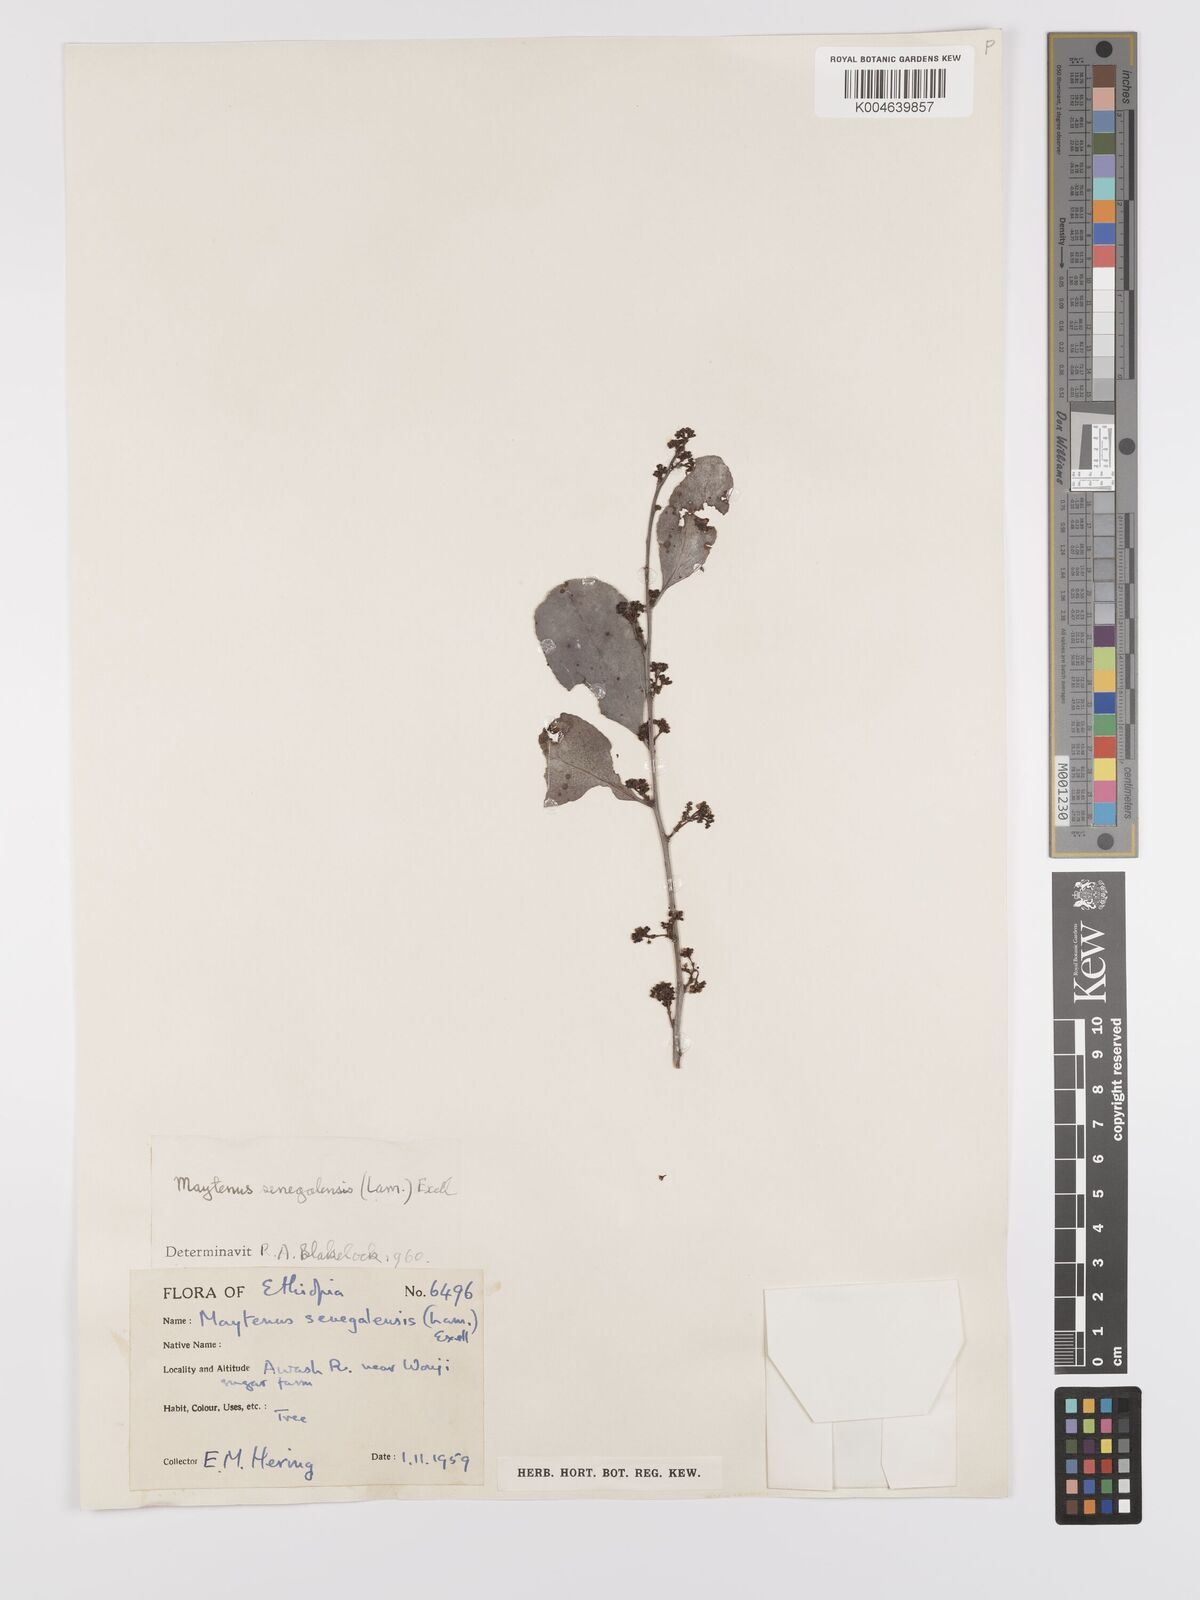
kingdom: Plantae
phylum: Tracheophyta
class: Magnoliopsida
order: Celastrales
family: Celastraceae
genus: Gymnosporia
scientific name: Gymnosporia senegalensis
